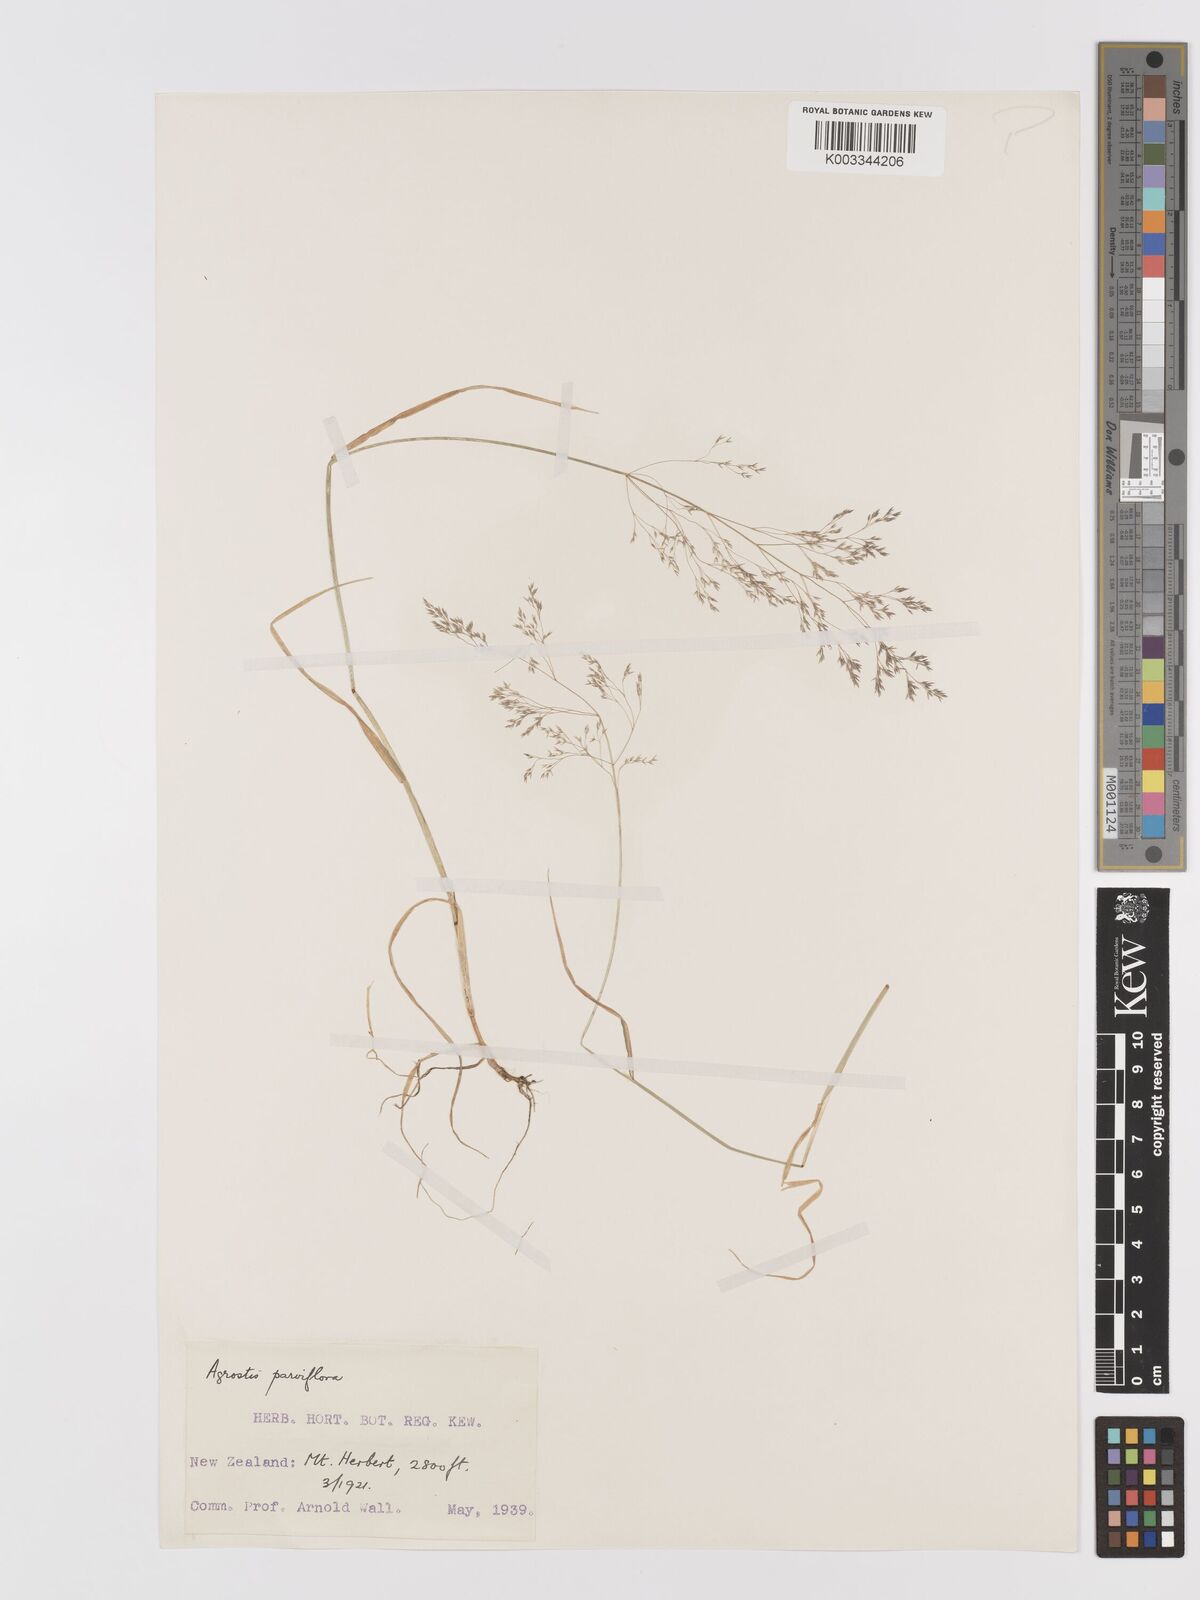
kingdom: Plantae
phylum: Tracheophyta
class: Liliopsida
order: Poales
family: Poaceae
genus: Agrostis
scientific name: Agrostis parviflora
